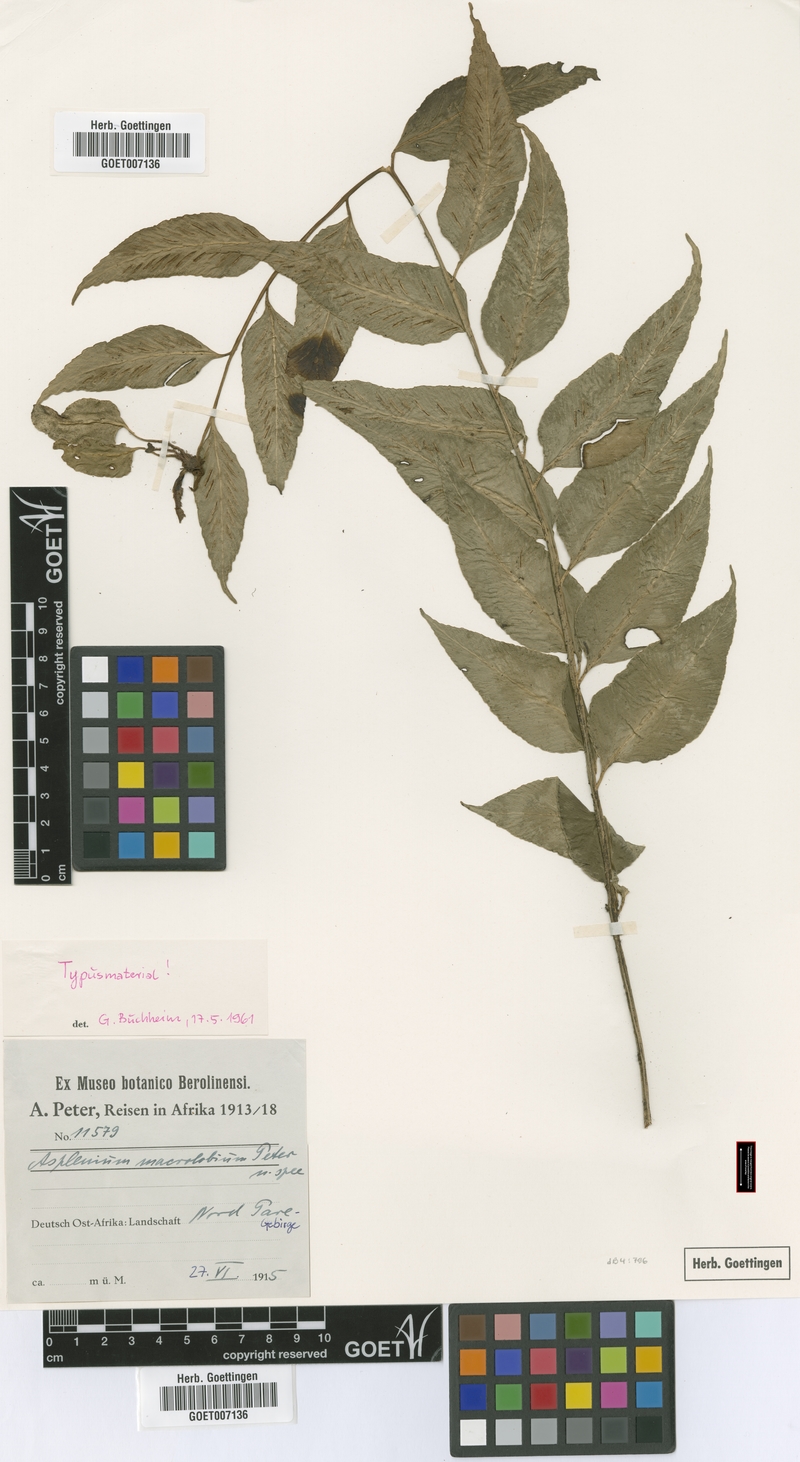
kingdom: Plantae
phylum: Tracheophyta
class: Polypodiopsida
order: Polypodiales
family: Aspleniaceae
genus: Asplenium
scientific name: Asplenium gemmiferum
